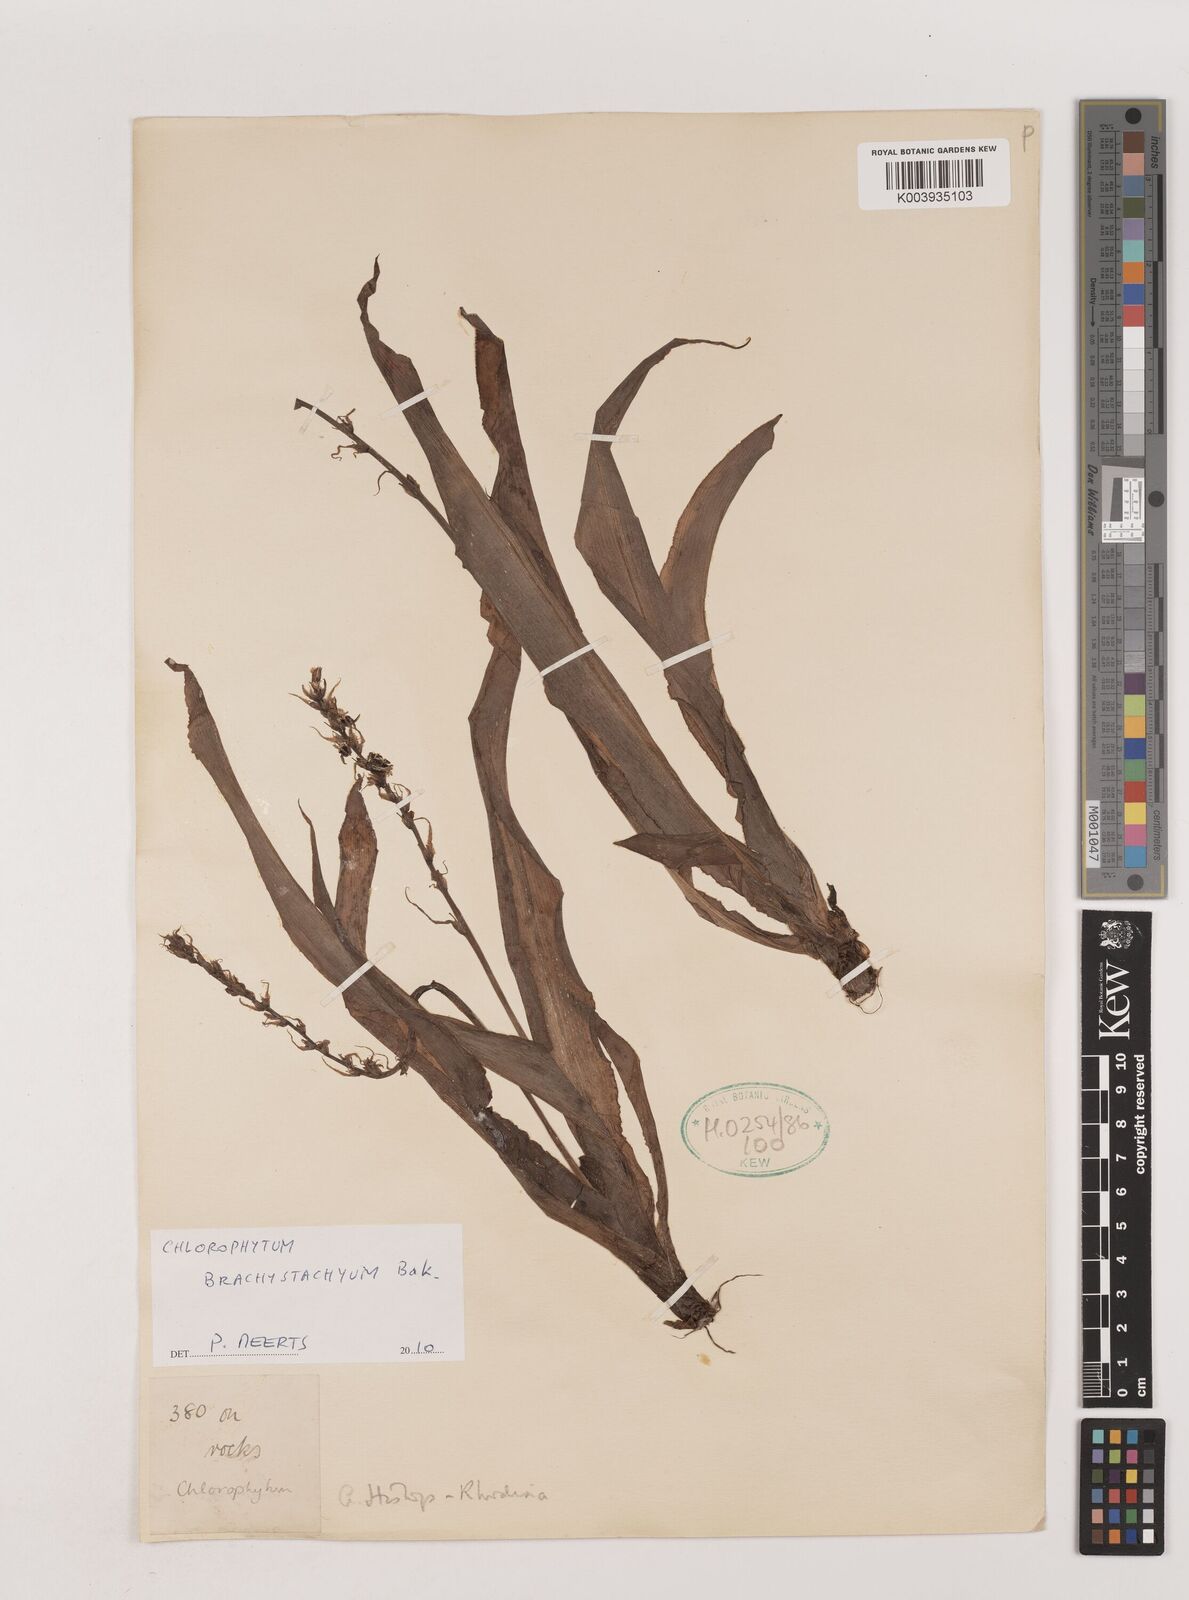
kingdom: Plantae
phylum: Tracheophyta
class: Liliopsida
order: Asparagales
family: Asparagaceae
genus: Chlorophytum
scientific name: Chlorophytum brachystachyum
